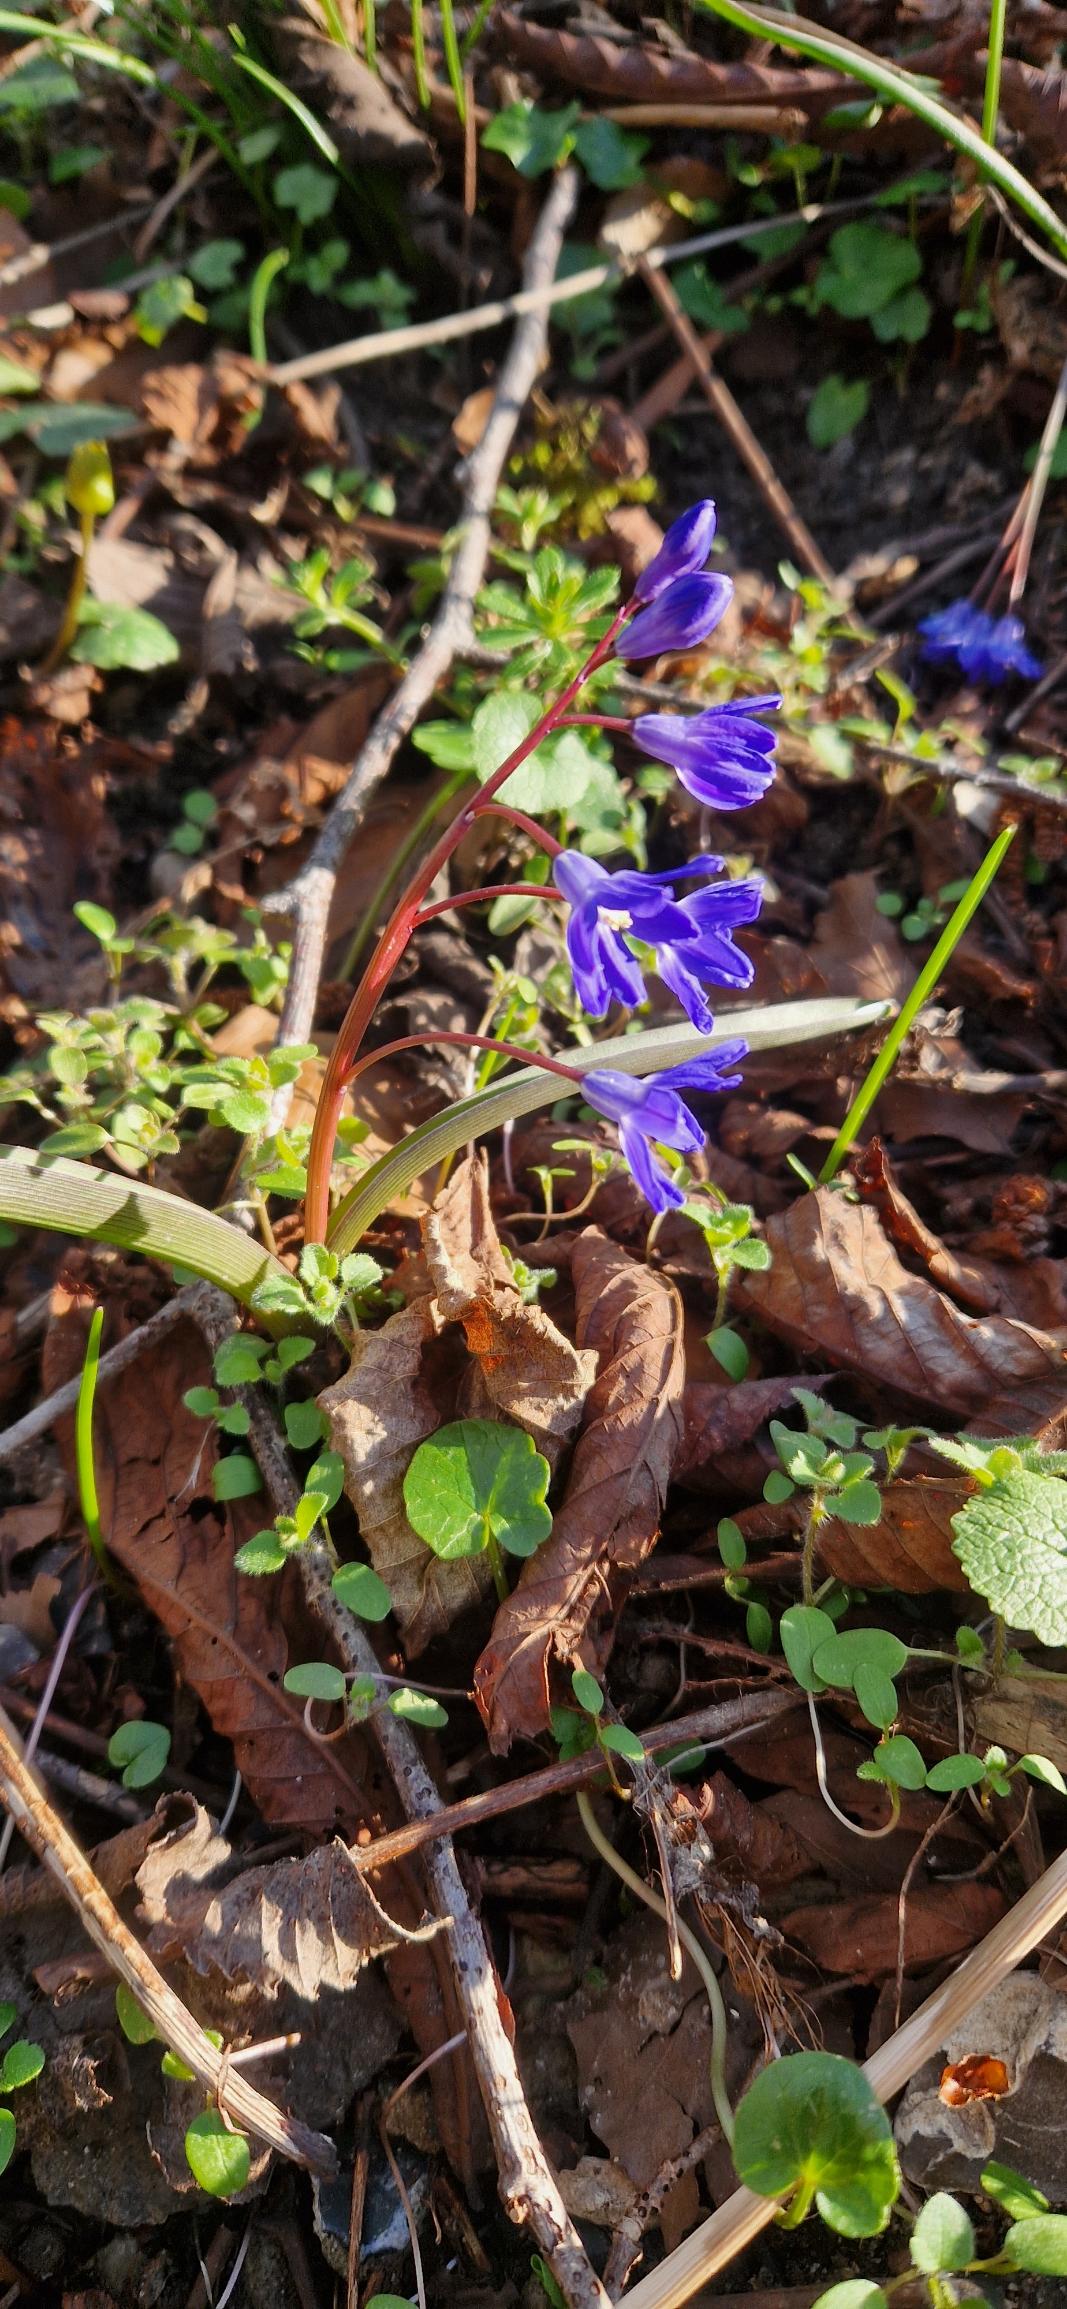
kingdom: Plantae
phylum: Tracheophyta
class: Liliopsida
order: Asparagales
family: Asparagaceae
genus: Scilla
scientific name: Scilla sardensis
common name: Liden snepryd
